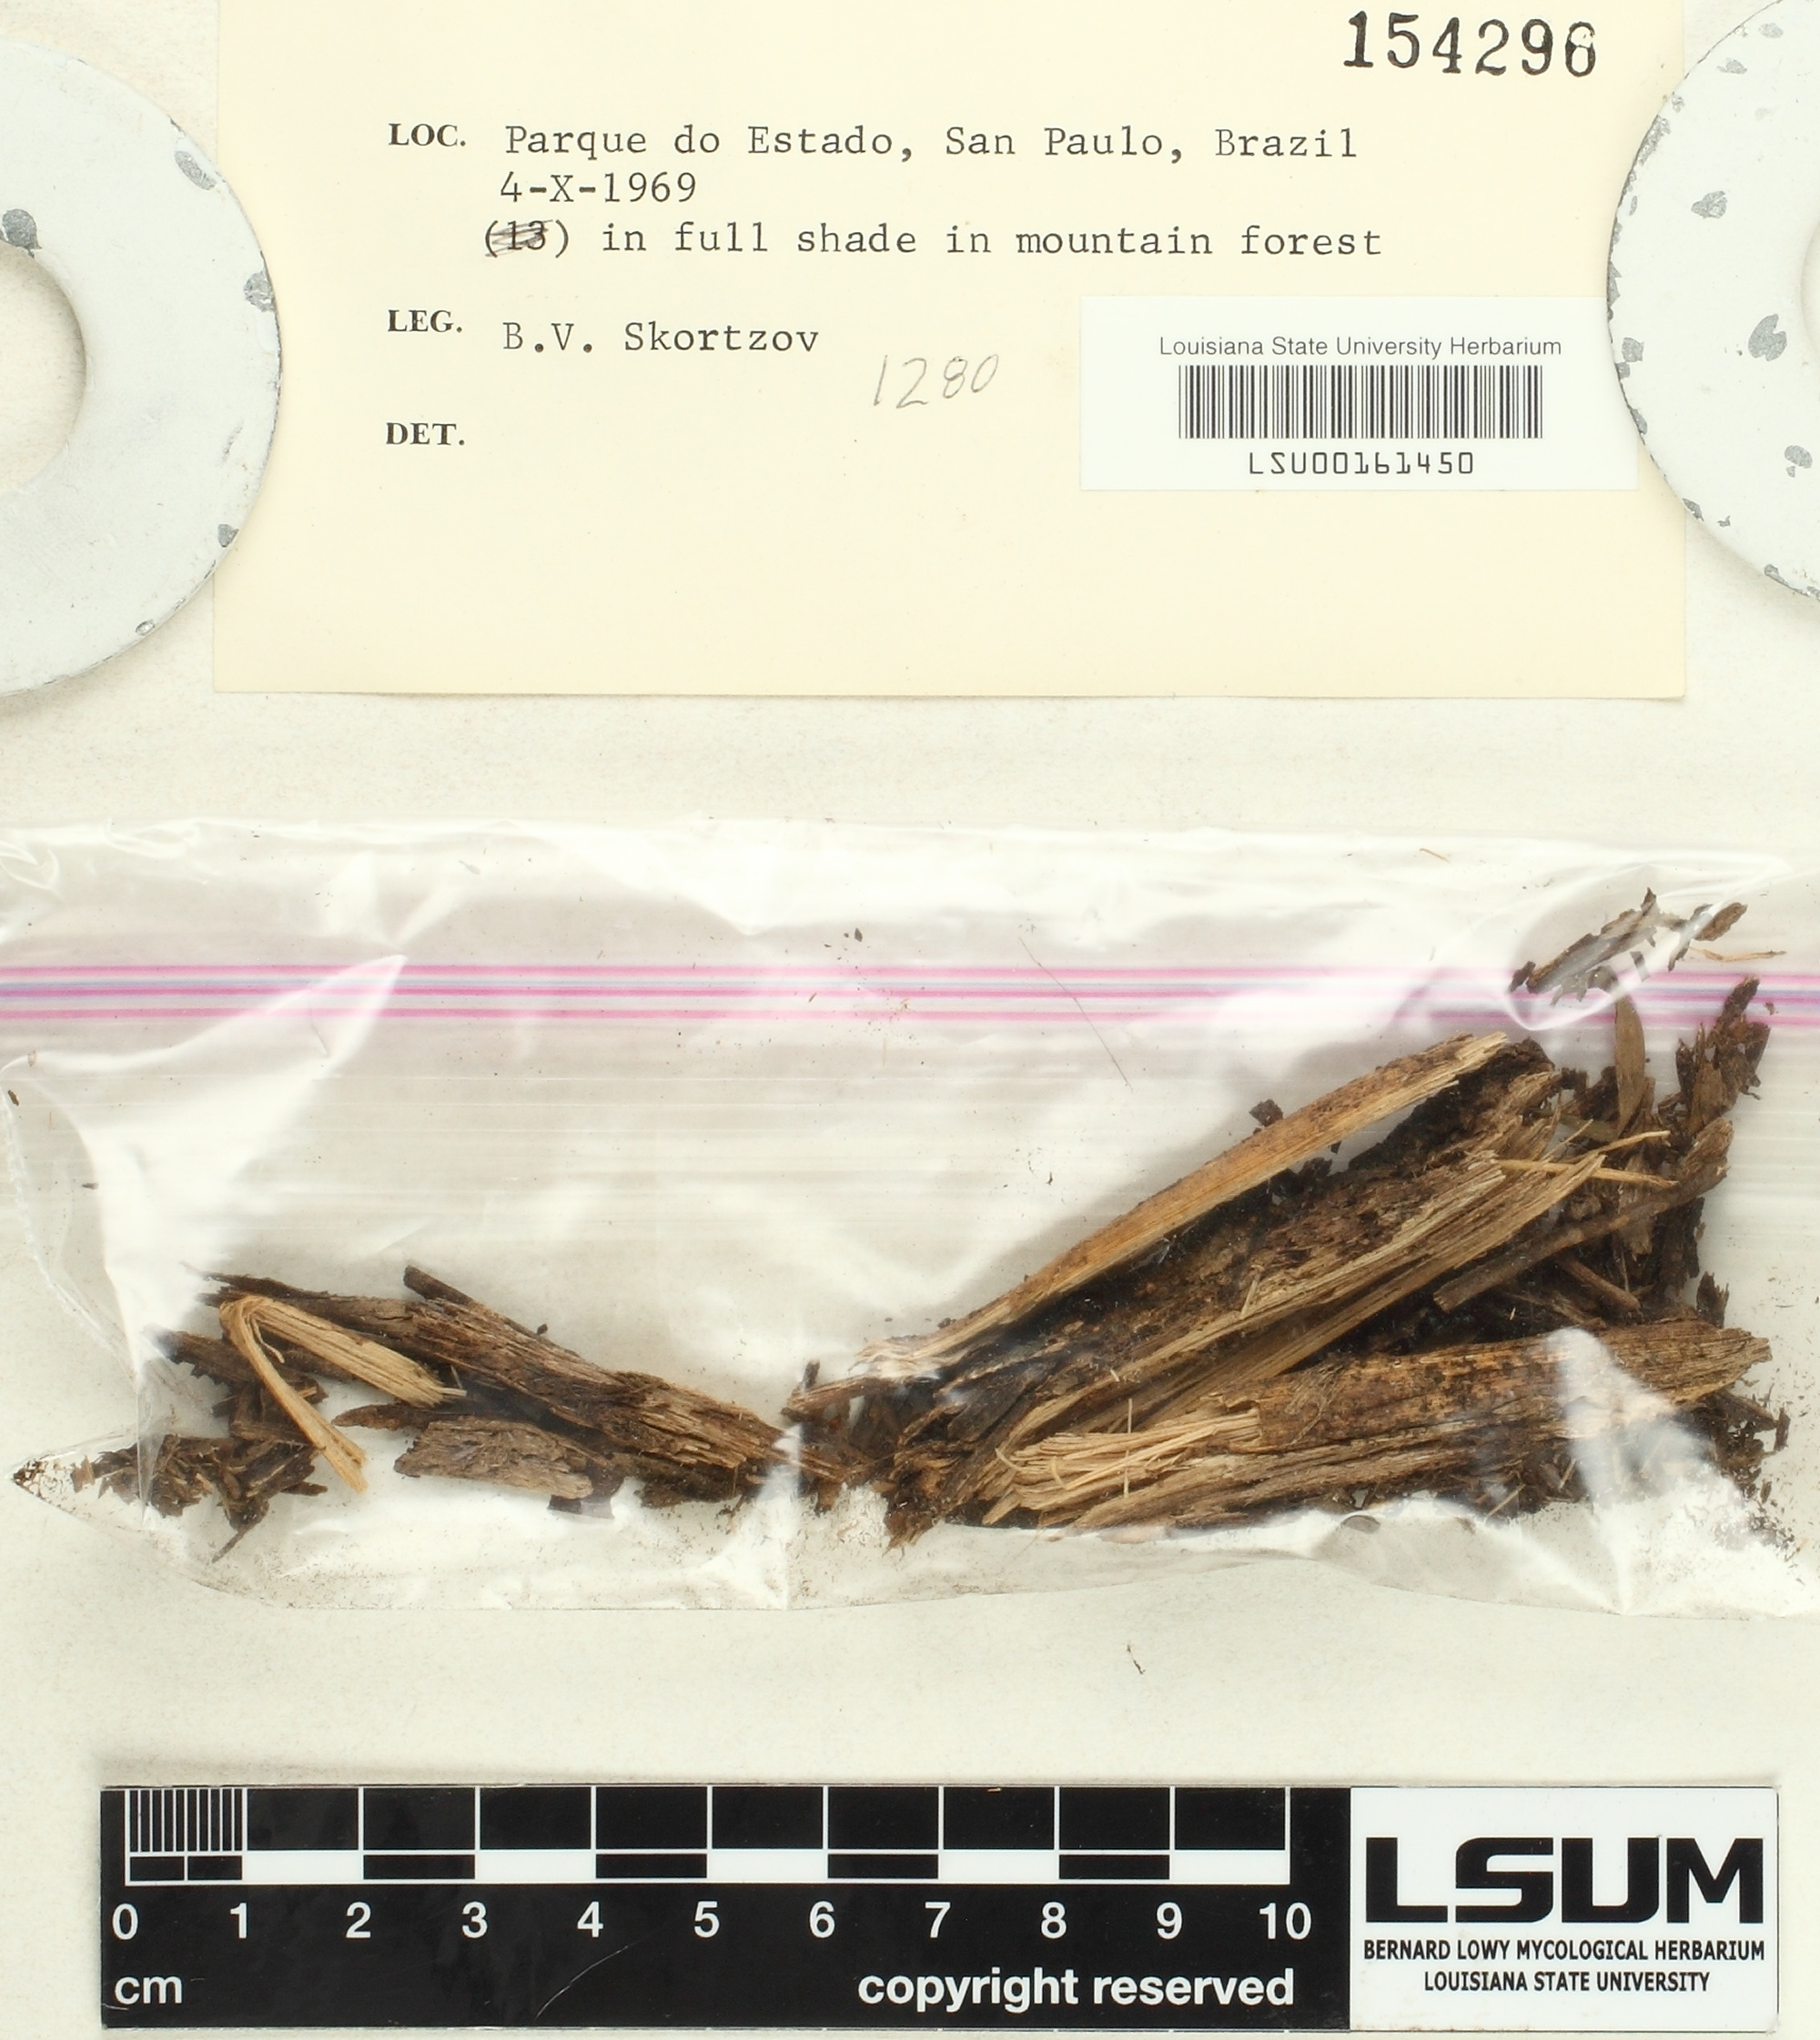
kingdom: Fungi
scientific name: Fungi
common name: Fungi
